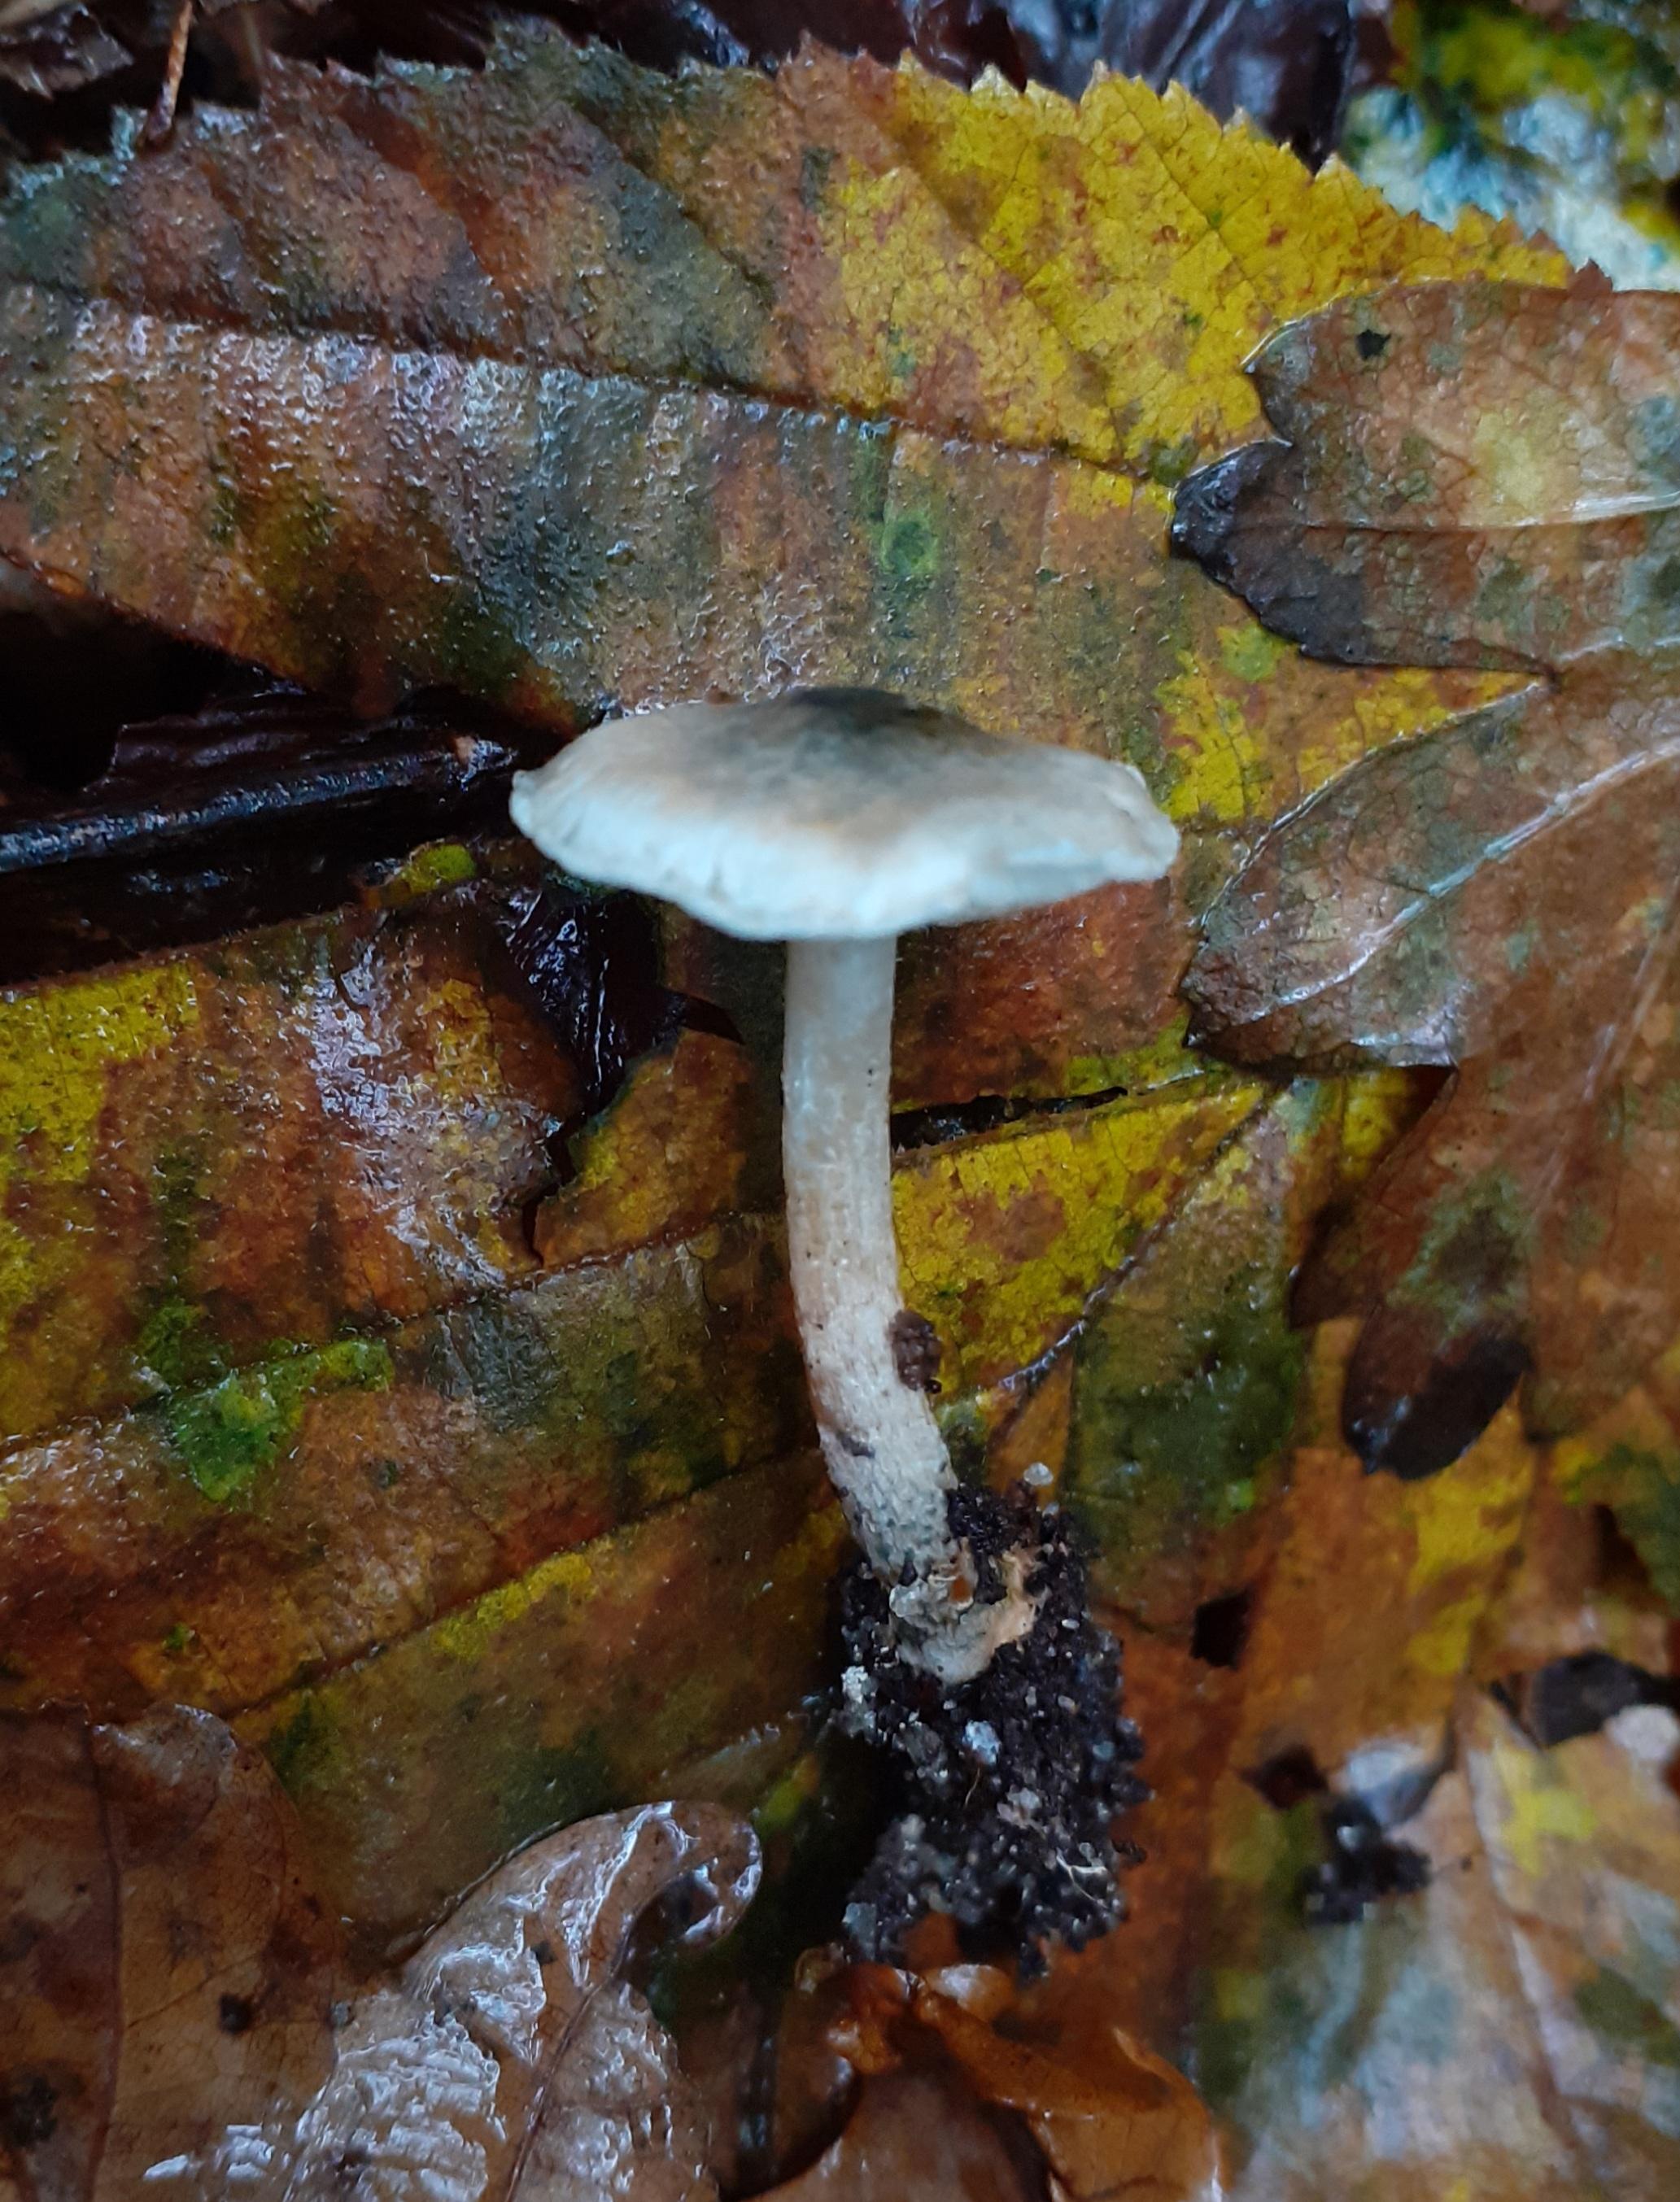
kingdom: Fungi
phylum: Basidiomycota
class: Agaricomycetes
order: Agaricales
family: Agaricaceae
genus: Lepiota
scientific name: Lepiota grangei
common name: grønskællet parasolhat
